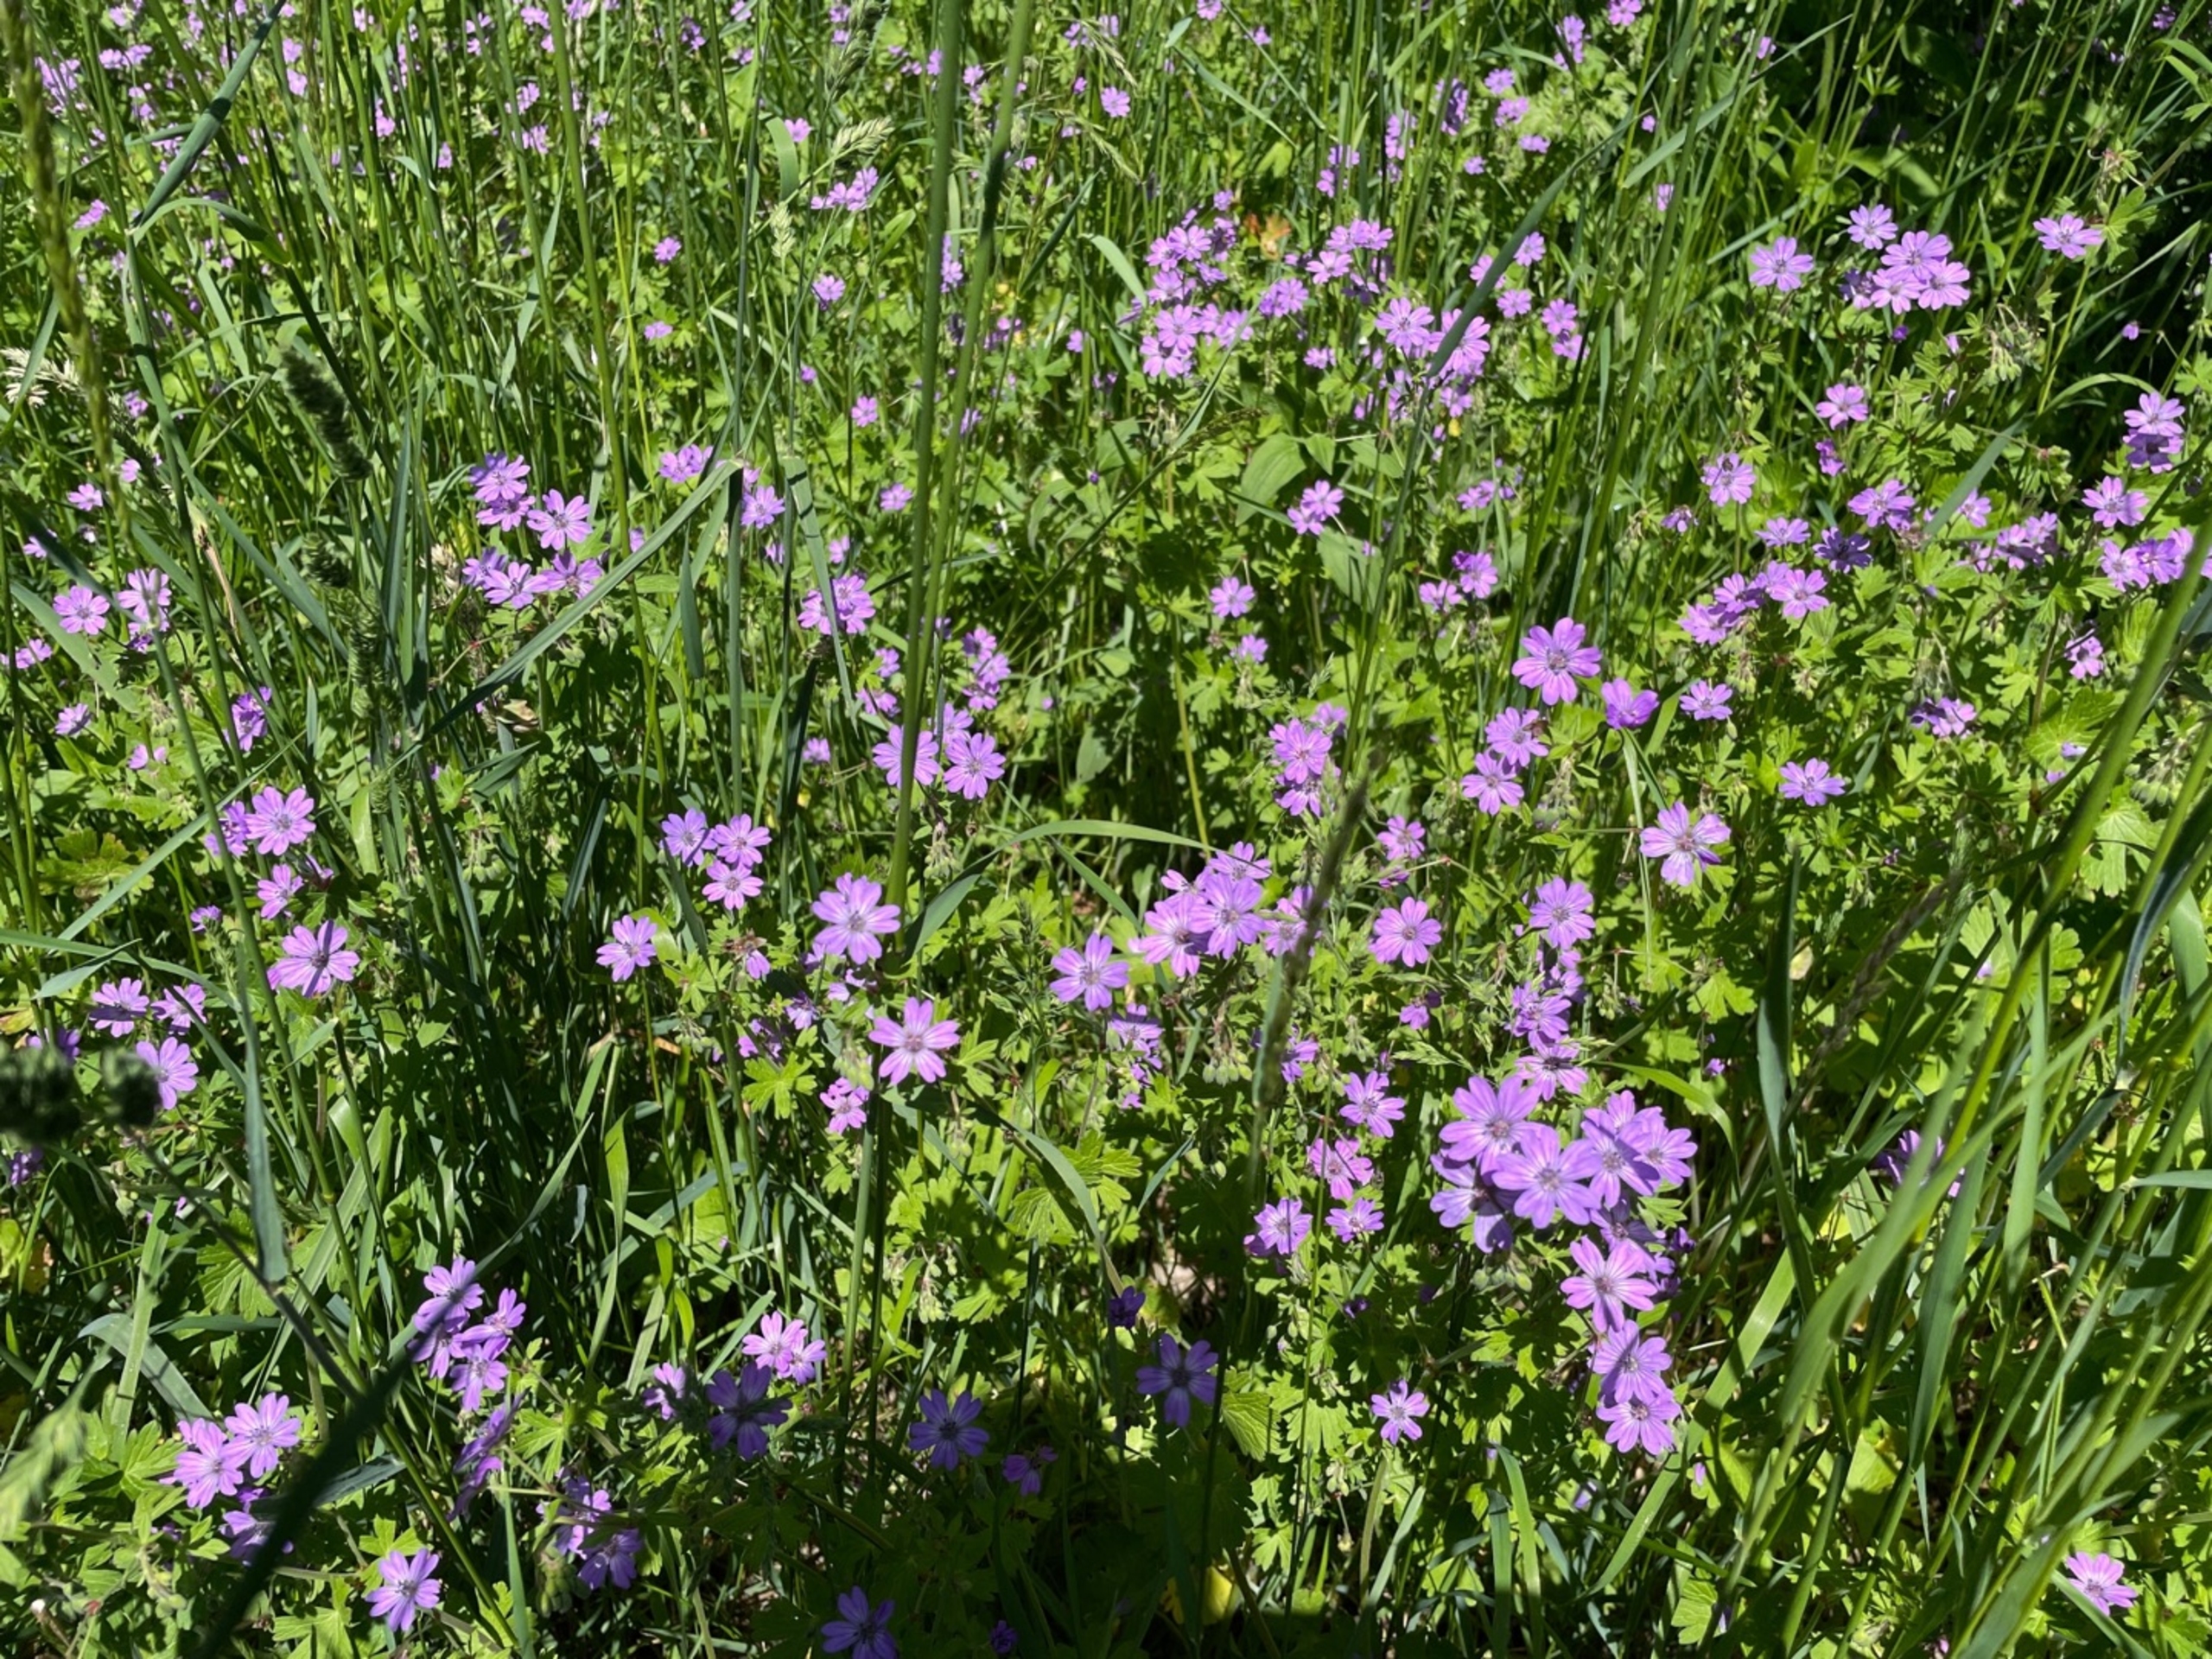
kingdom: Plantae
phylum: Tracheophyta
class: Magnoliopsida
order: Geraniales
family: Geraniaceae
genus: Geranium
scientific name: Geranium pyrenaicum
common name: Pyrenæisk storkenæb
